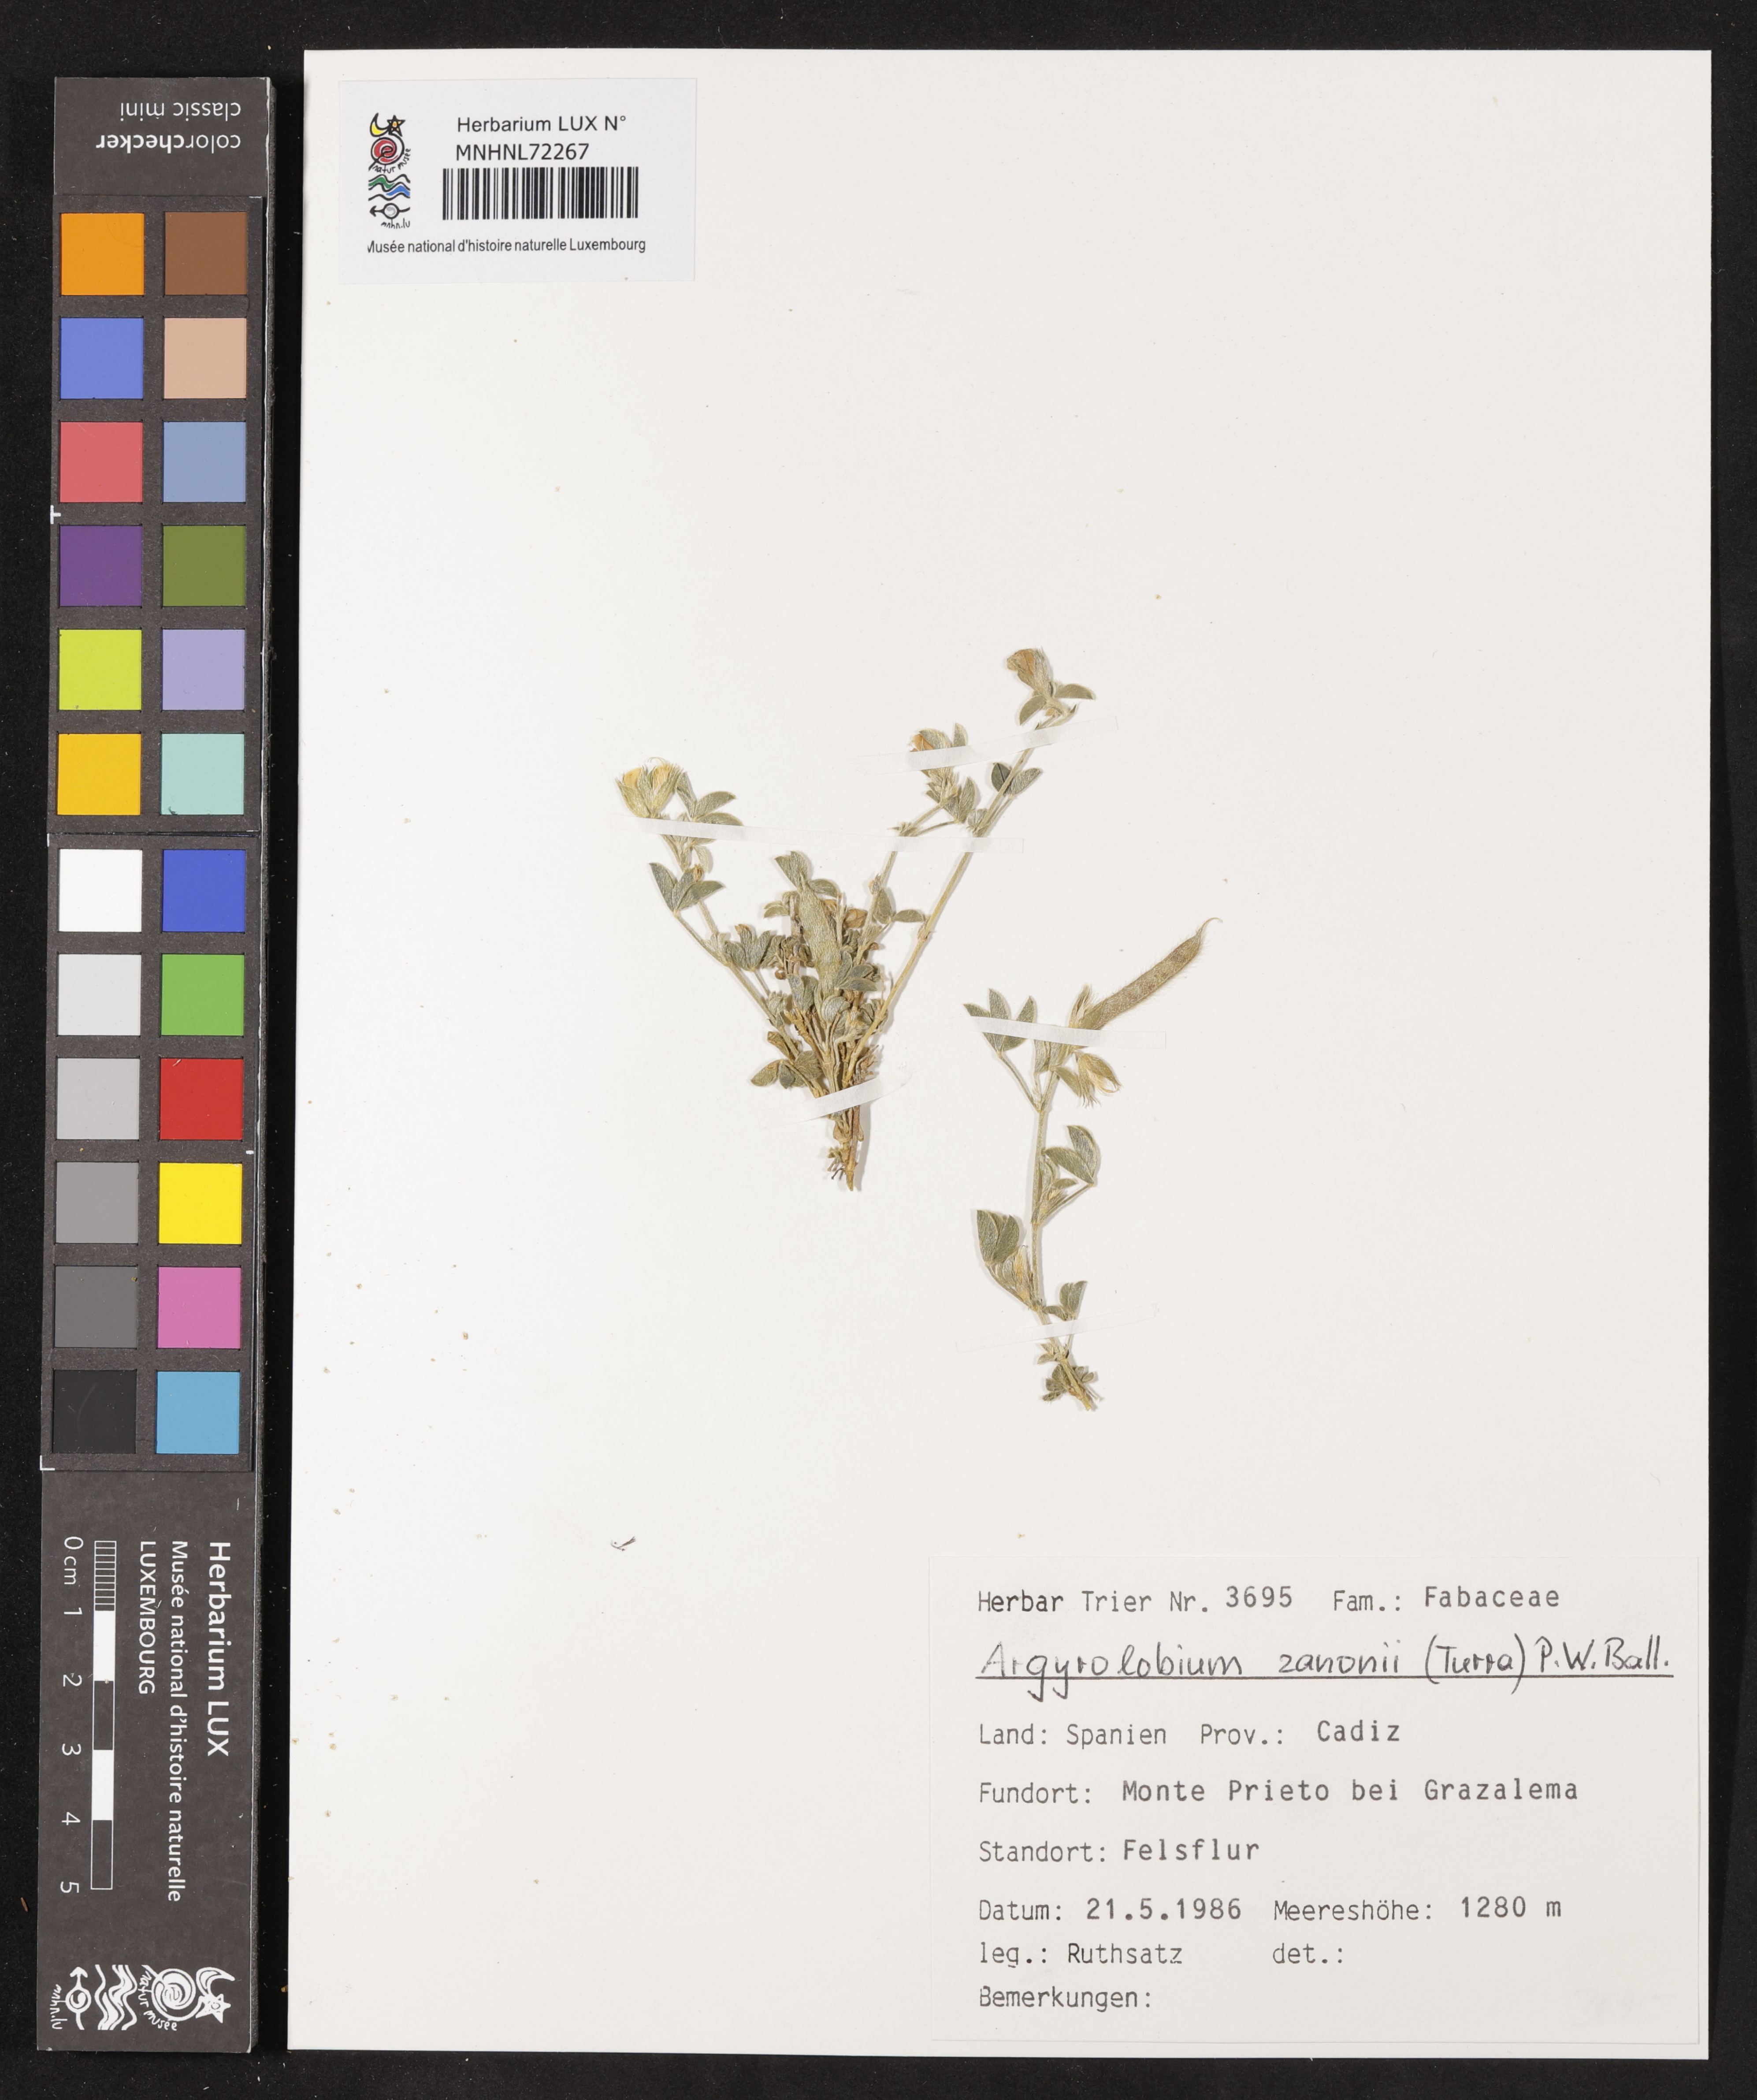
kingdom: Plantae
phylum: Tracheophyta
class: Magnoliopsida
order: Fabales
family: Fabaceae
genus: Argyrolobium
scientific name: Argyrolobium zanonii
